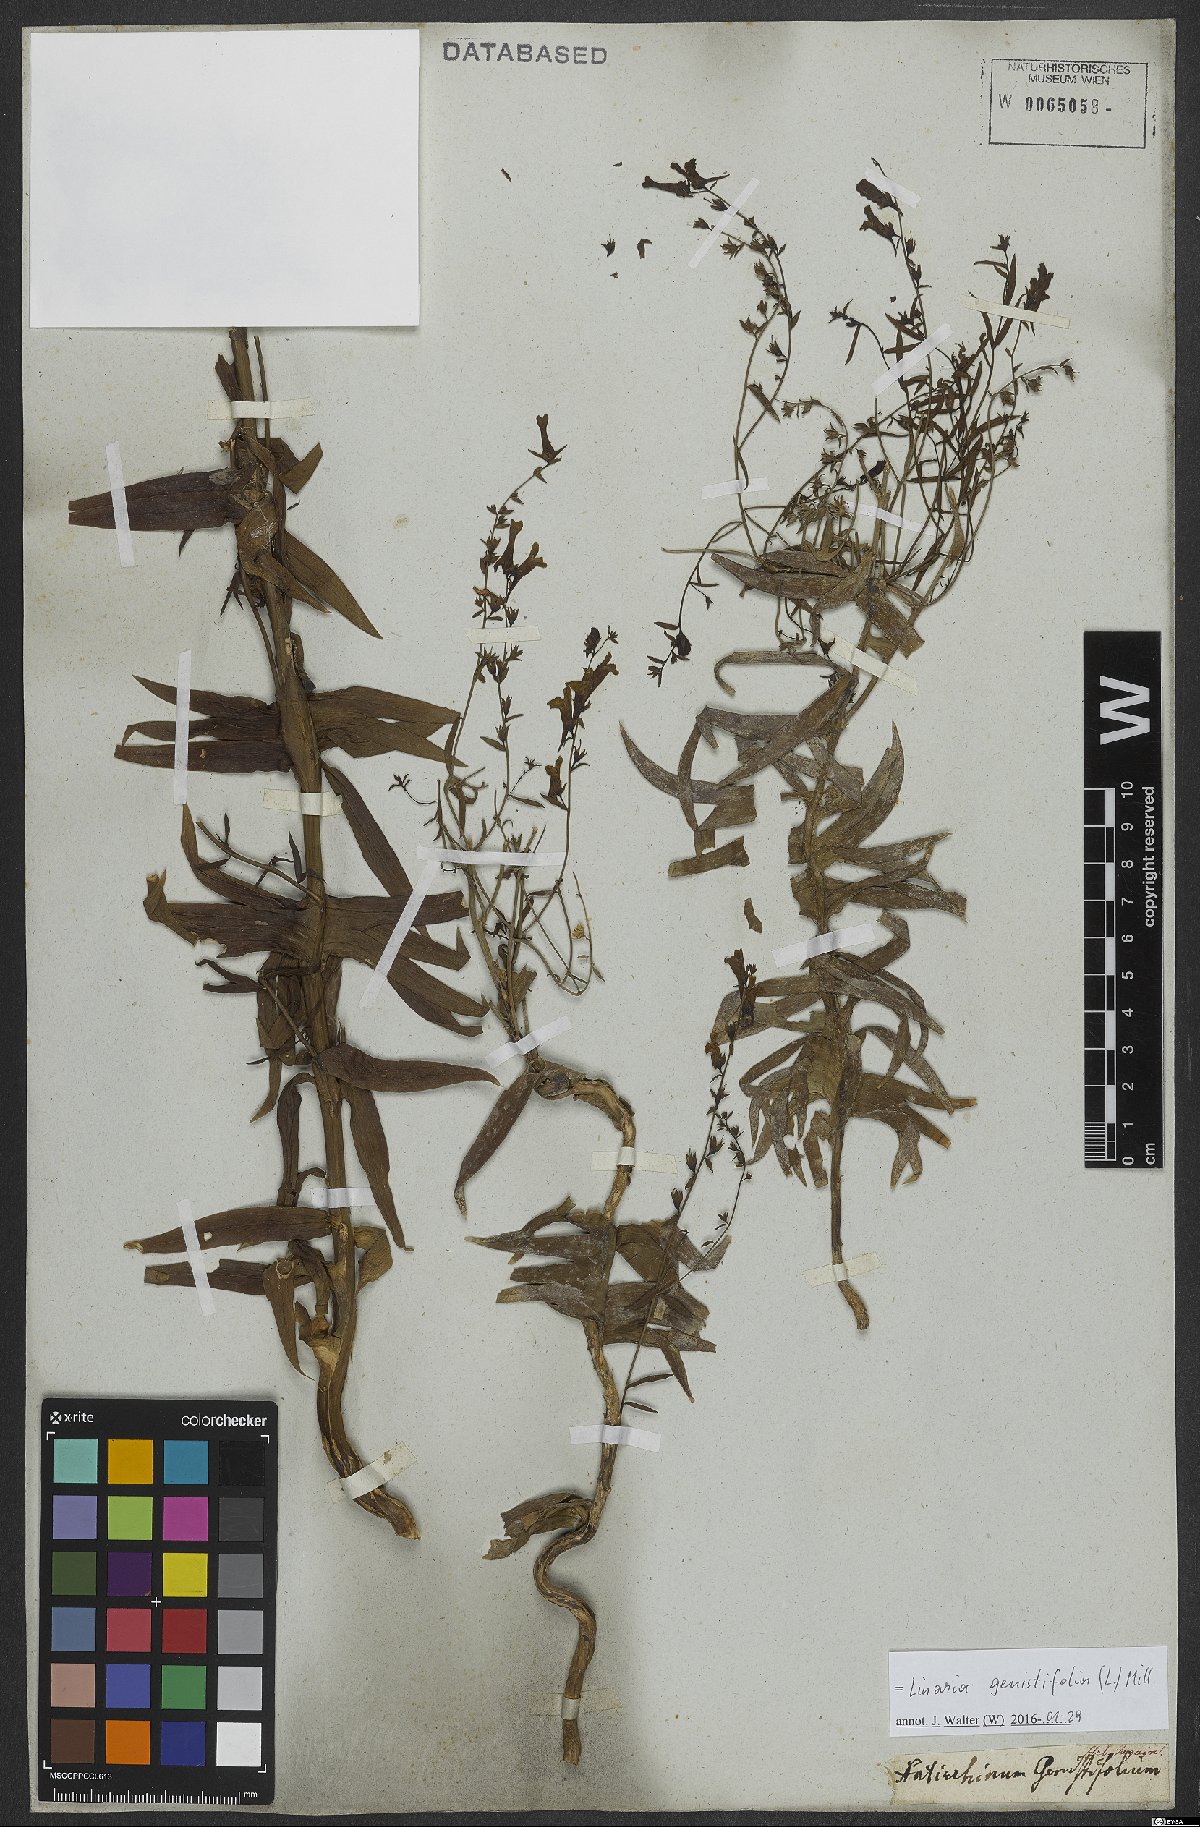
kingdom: Plantae
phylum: Tracheophyta
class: Magnoliopsida
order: Lamiales
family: Plantaginaceae
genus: Linaria
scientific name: Linaria genistifolia
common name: Broomleaf toadflax
